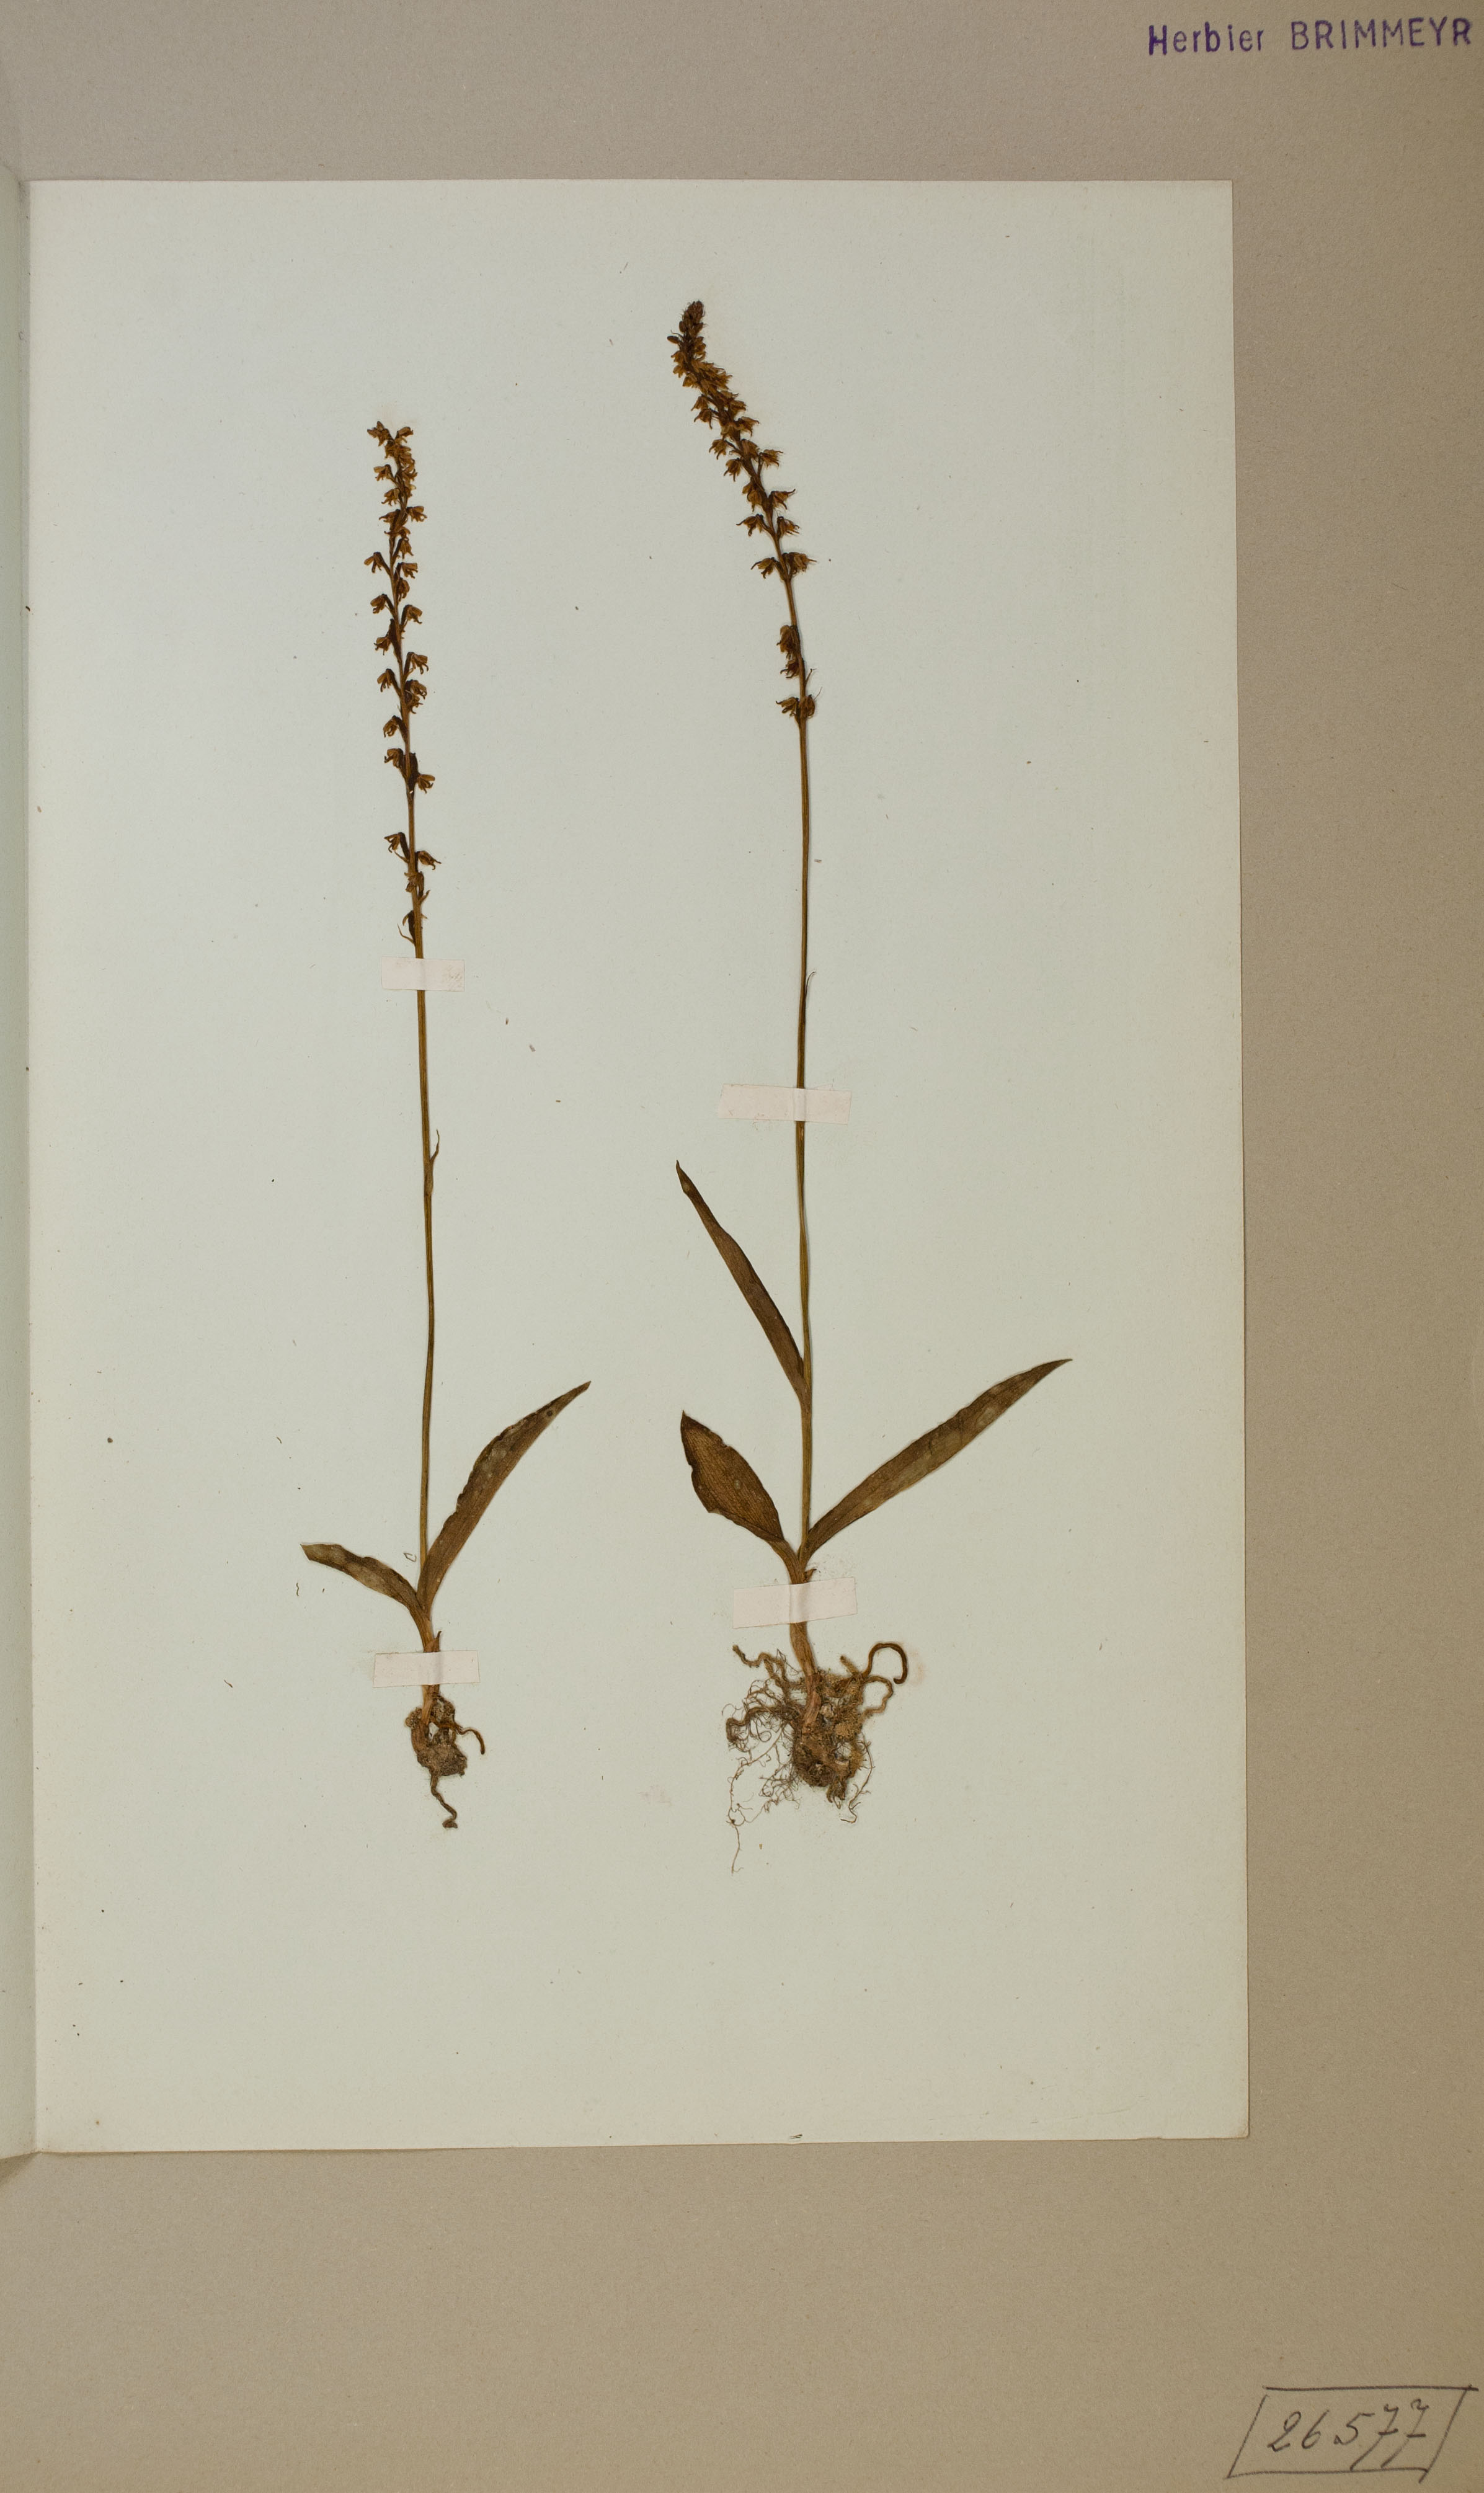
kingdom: Plantae
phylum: Tracheophyta
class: Liliopsida
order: Asparagales
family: Orchidaceae
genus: Herminium
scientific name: Herminium monorchis
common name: Musk orchid
